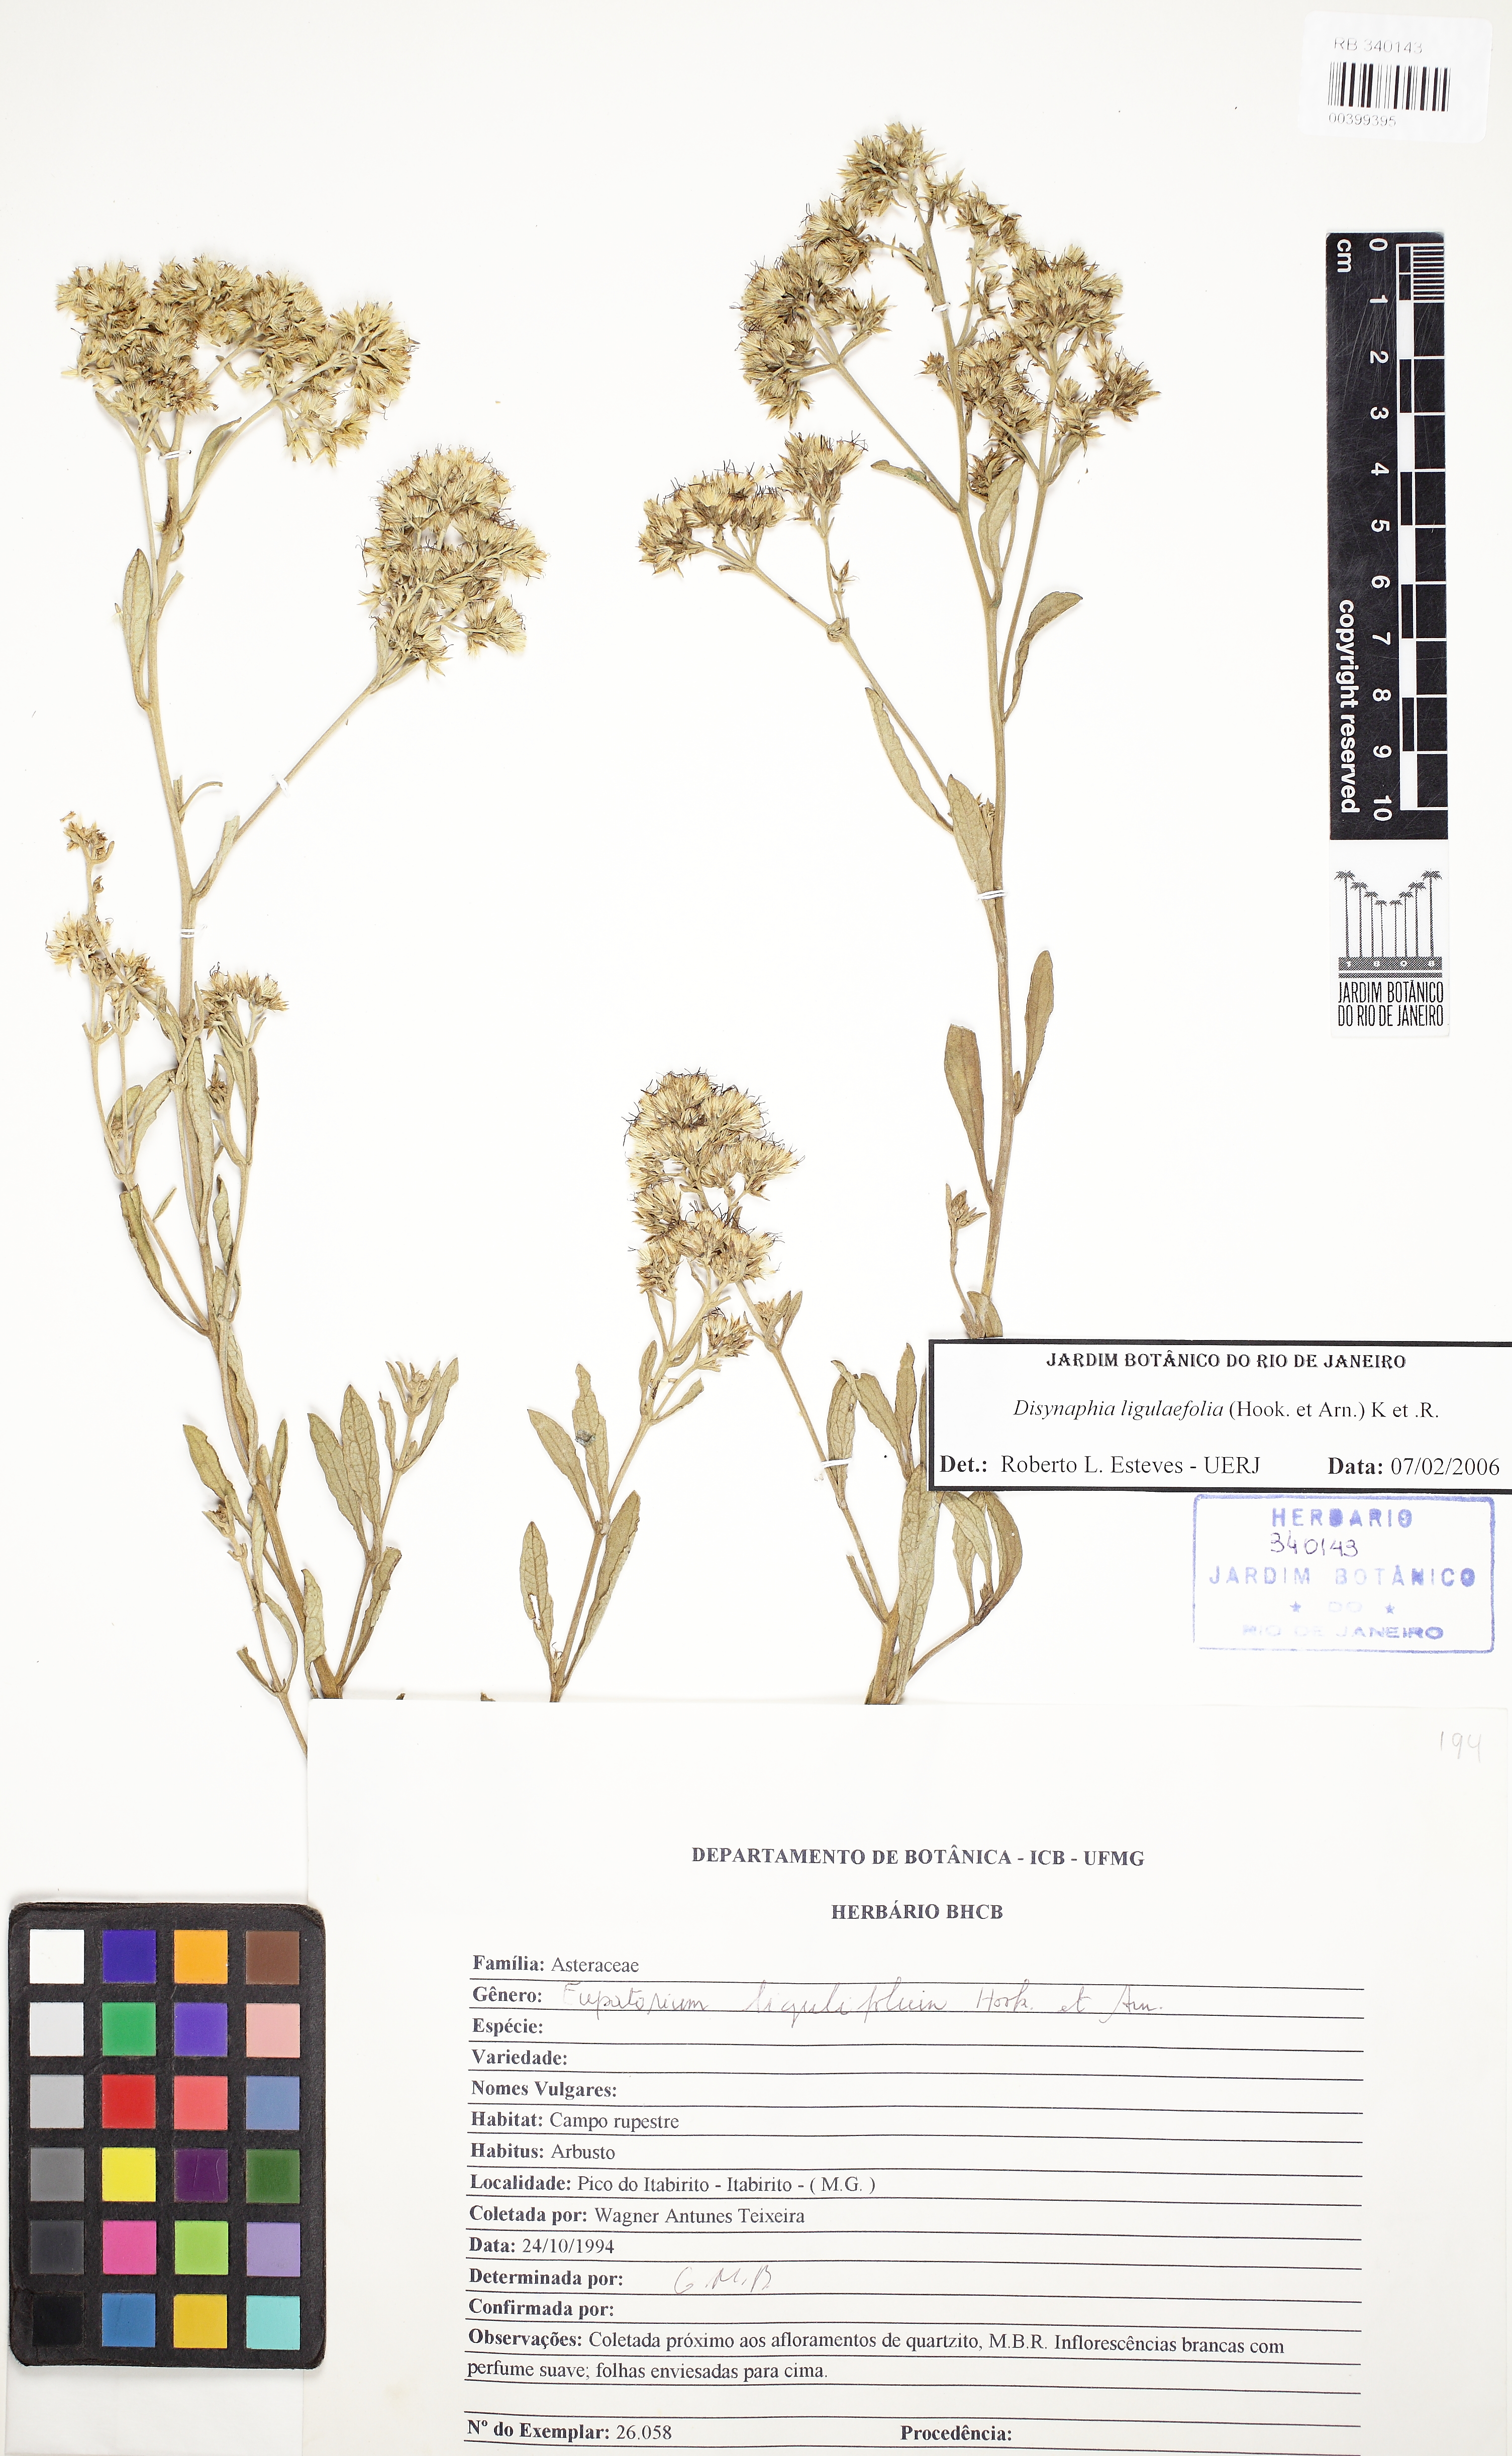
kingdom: Plantae
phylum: Tracheophyta
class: Magnoliopsida
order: Asterales
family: Asteraceae
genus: Stomatanthes
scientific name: Stomatanthes
